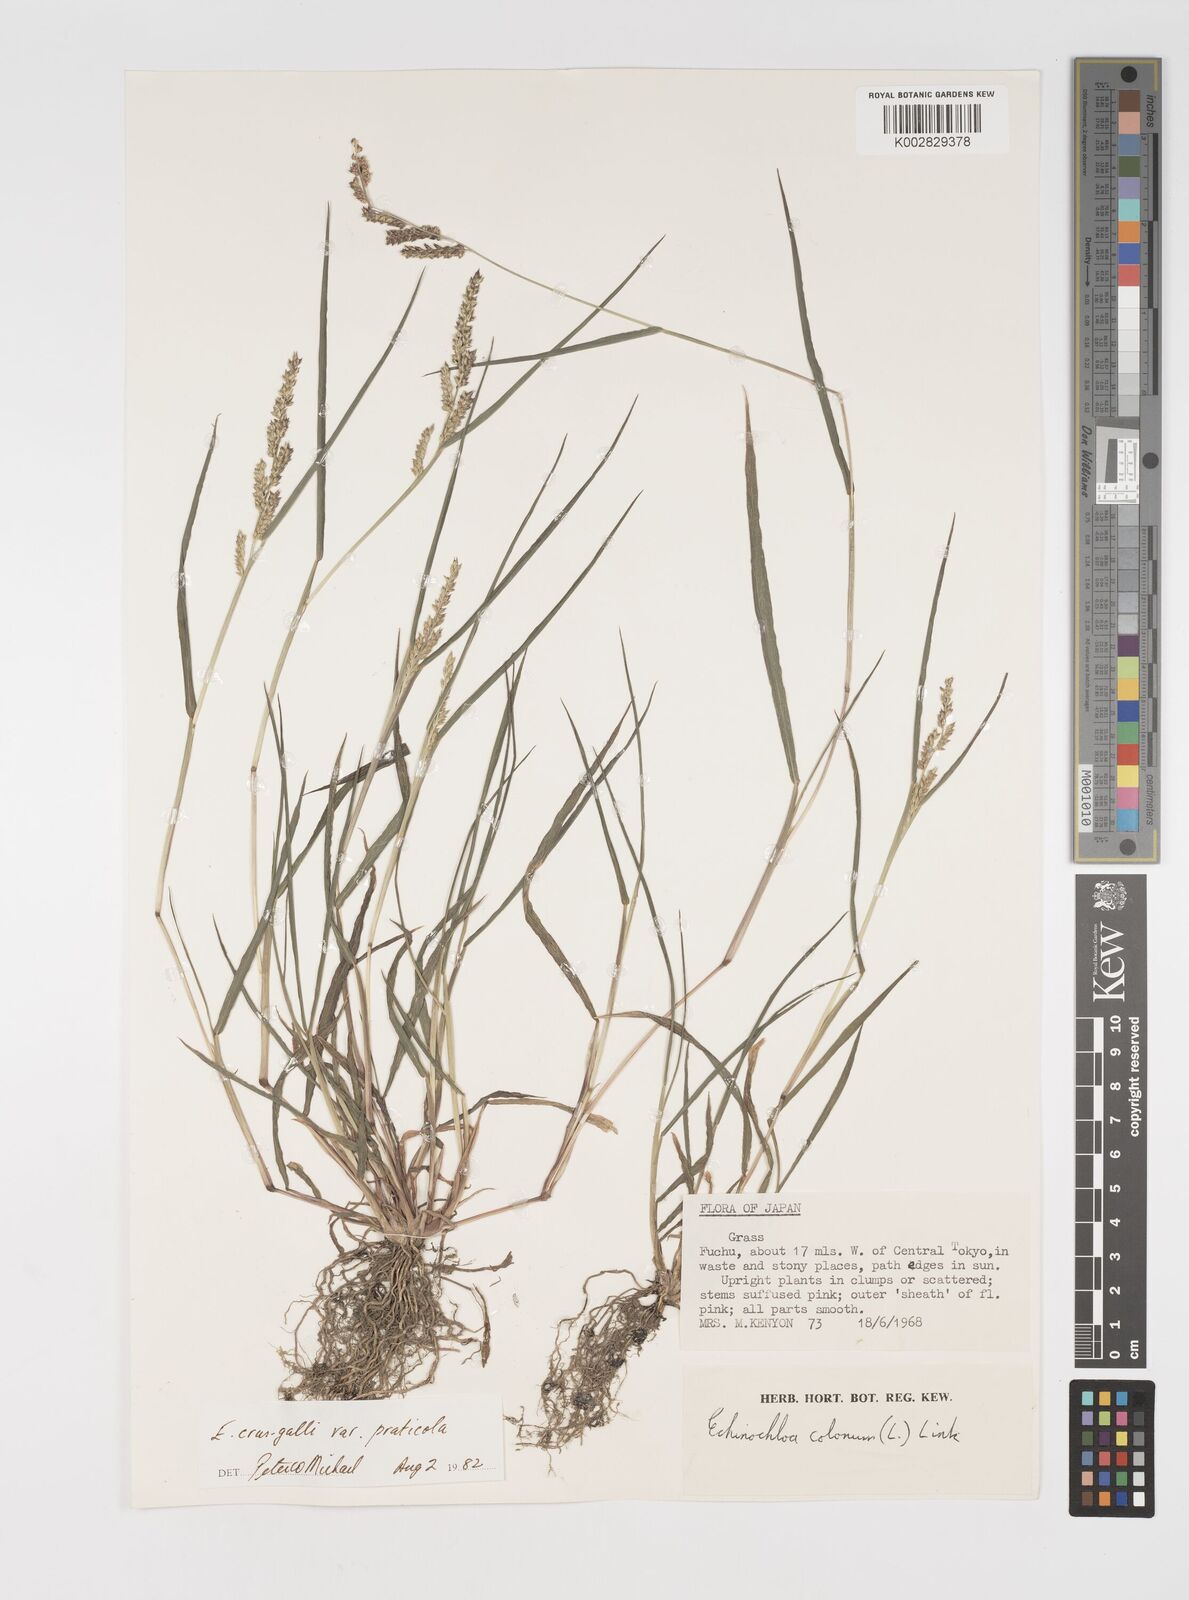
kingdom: Plantae
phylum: Tracheophyta
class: Liliopsida
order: Poales
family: Poaceae
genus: Echinochloa
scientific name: Echinochloa crus-galli
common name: Cockspur
